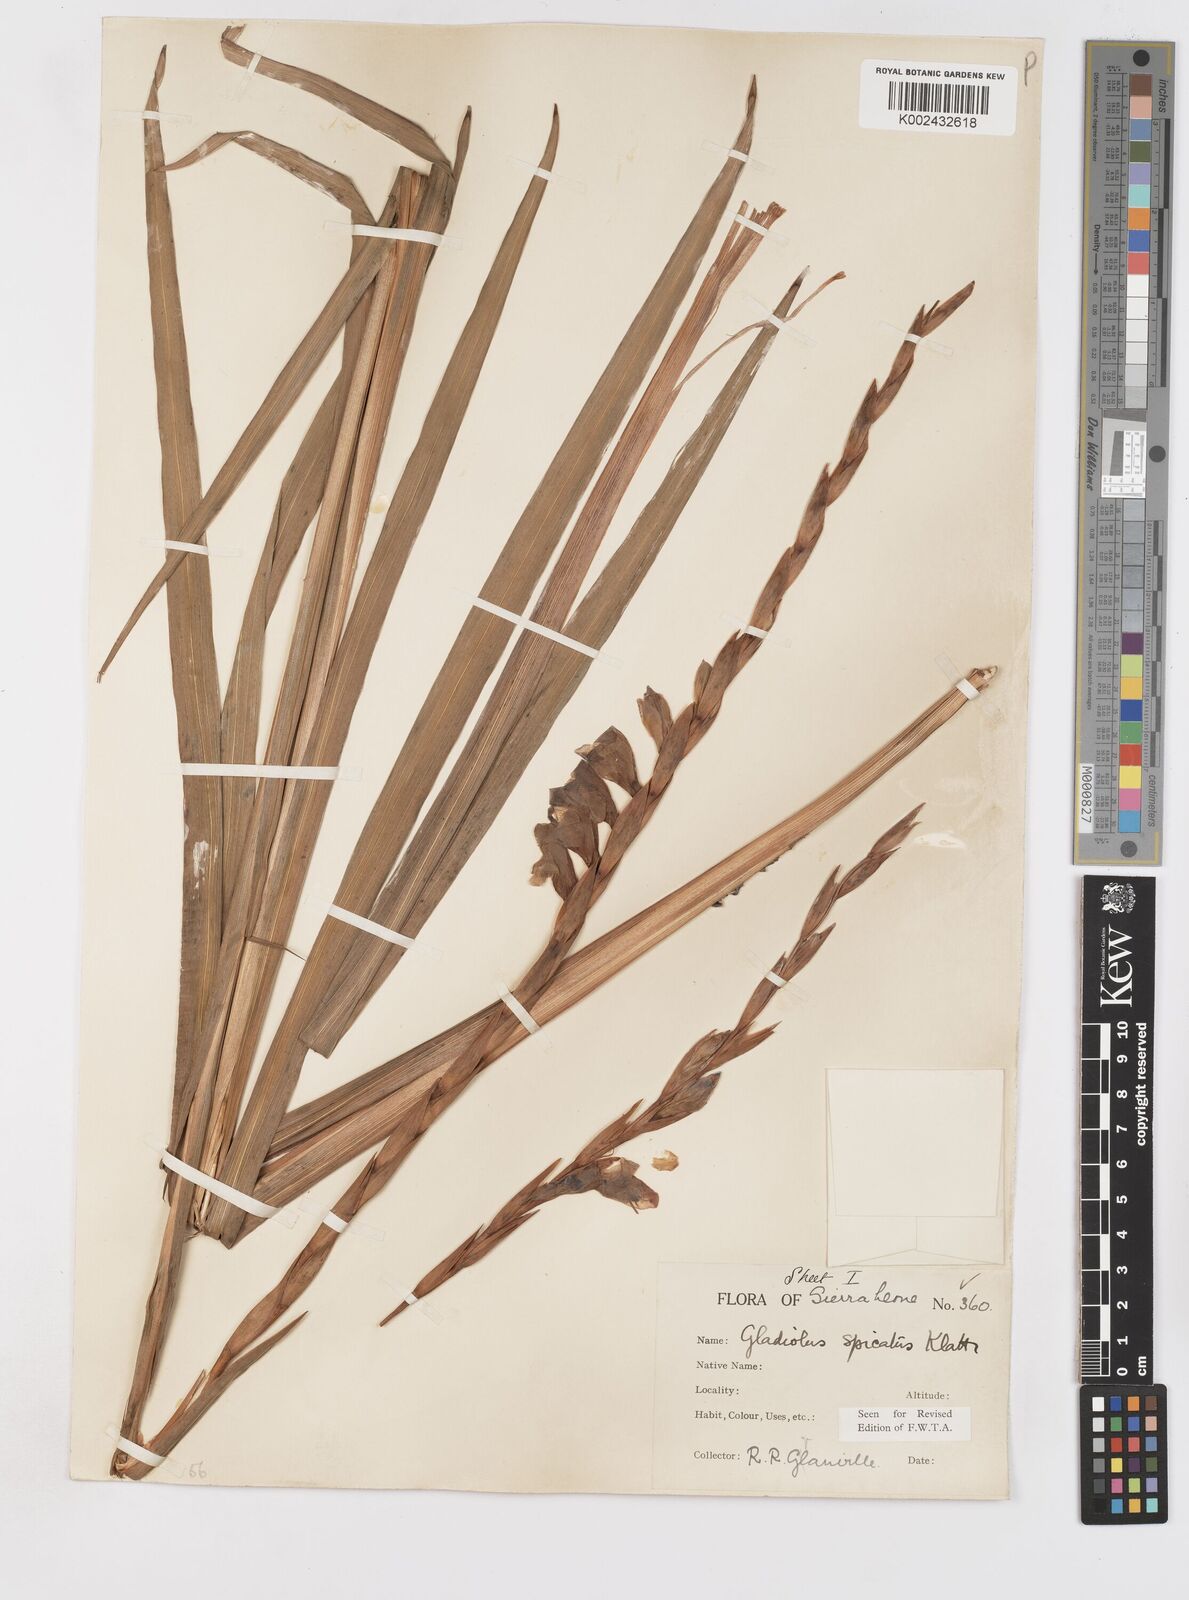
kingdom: Plantae
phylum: Tracheophyta
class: Liliopsida
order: Asparagales
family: Iridaceae
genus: Gladiolus
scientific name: Gladiolus gregarius
